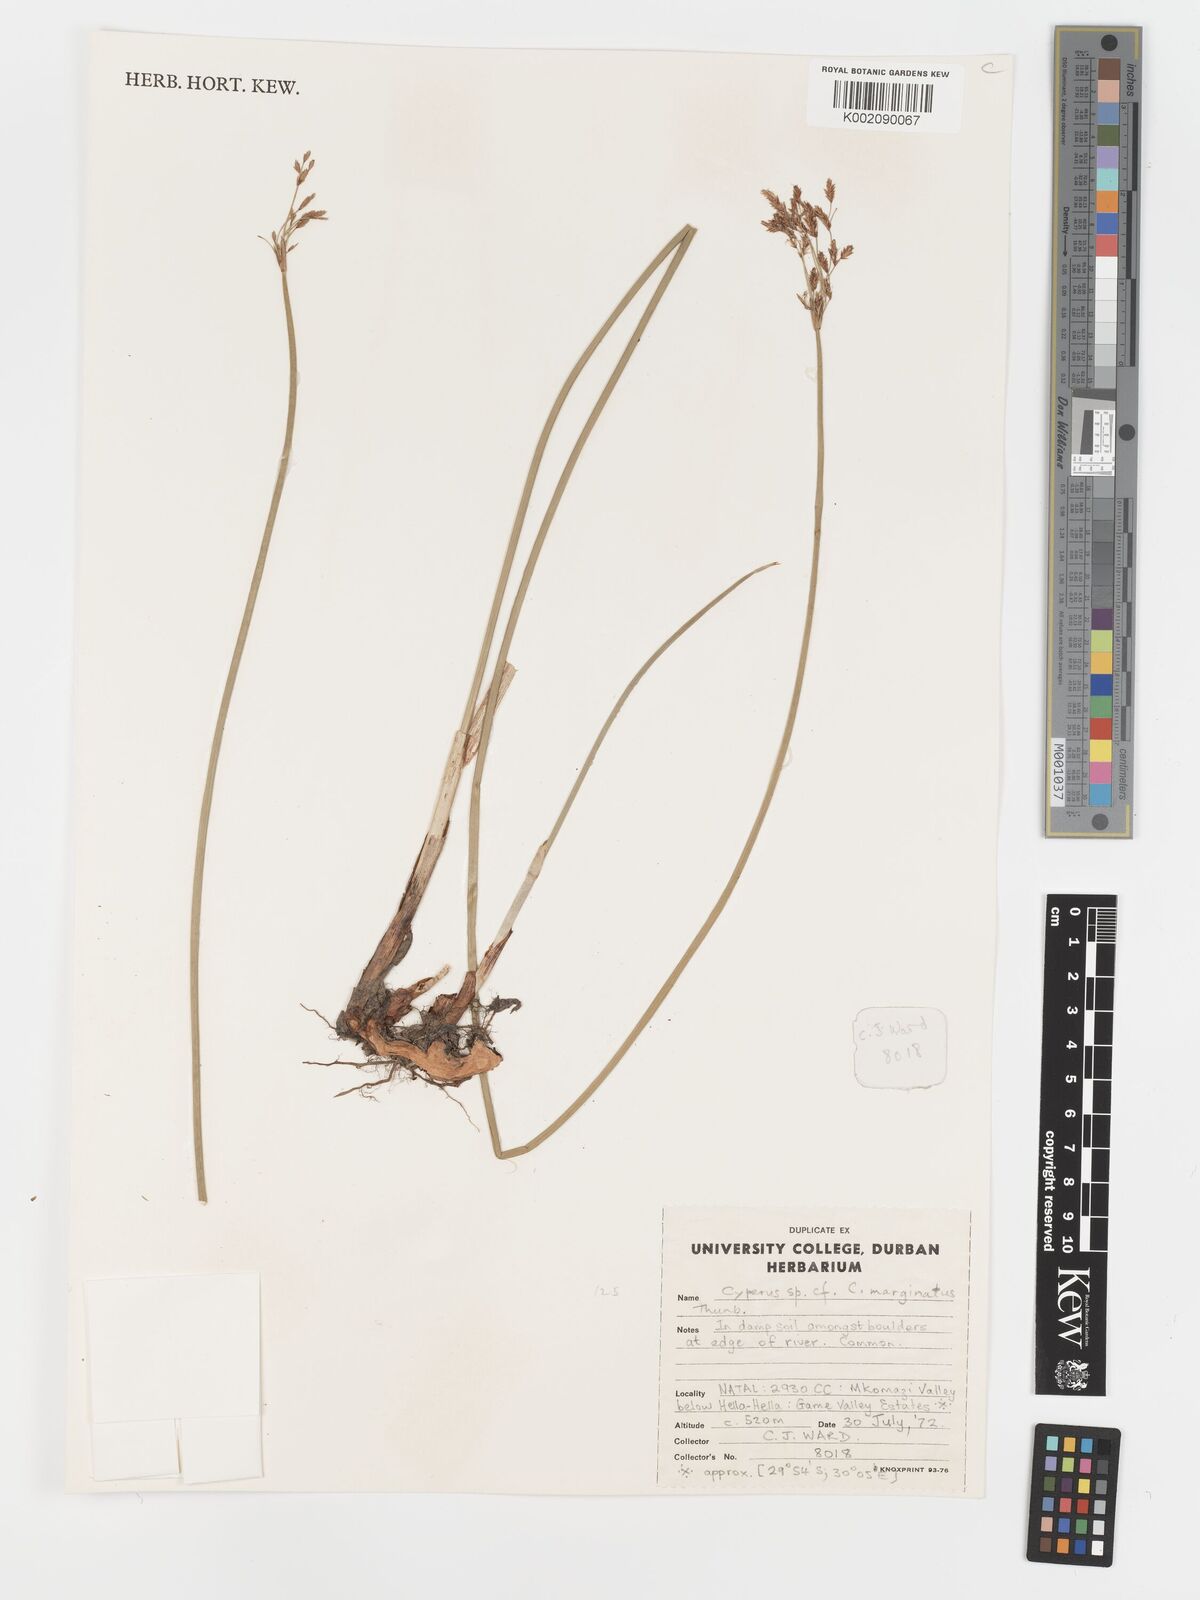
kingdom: Plantae
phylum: Tracheophyta
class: Liliopsida
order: Poales
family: Cyperaceae
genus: Cyperus
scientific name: Cyperus marginatus
